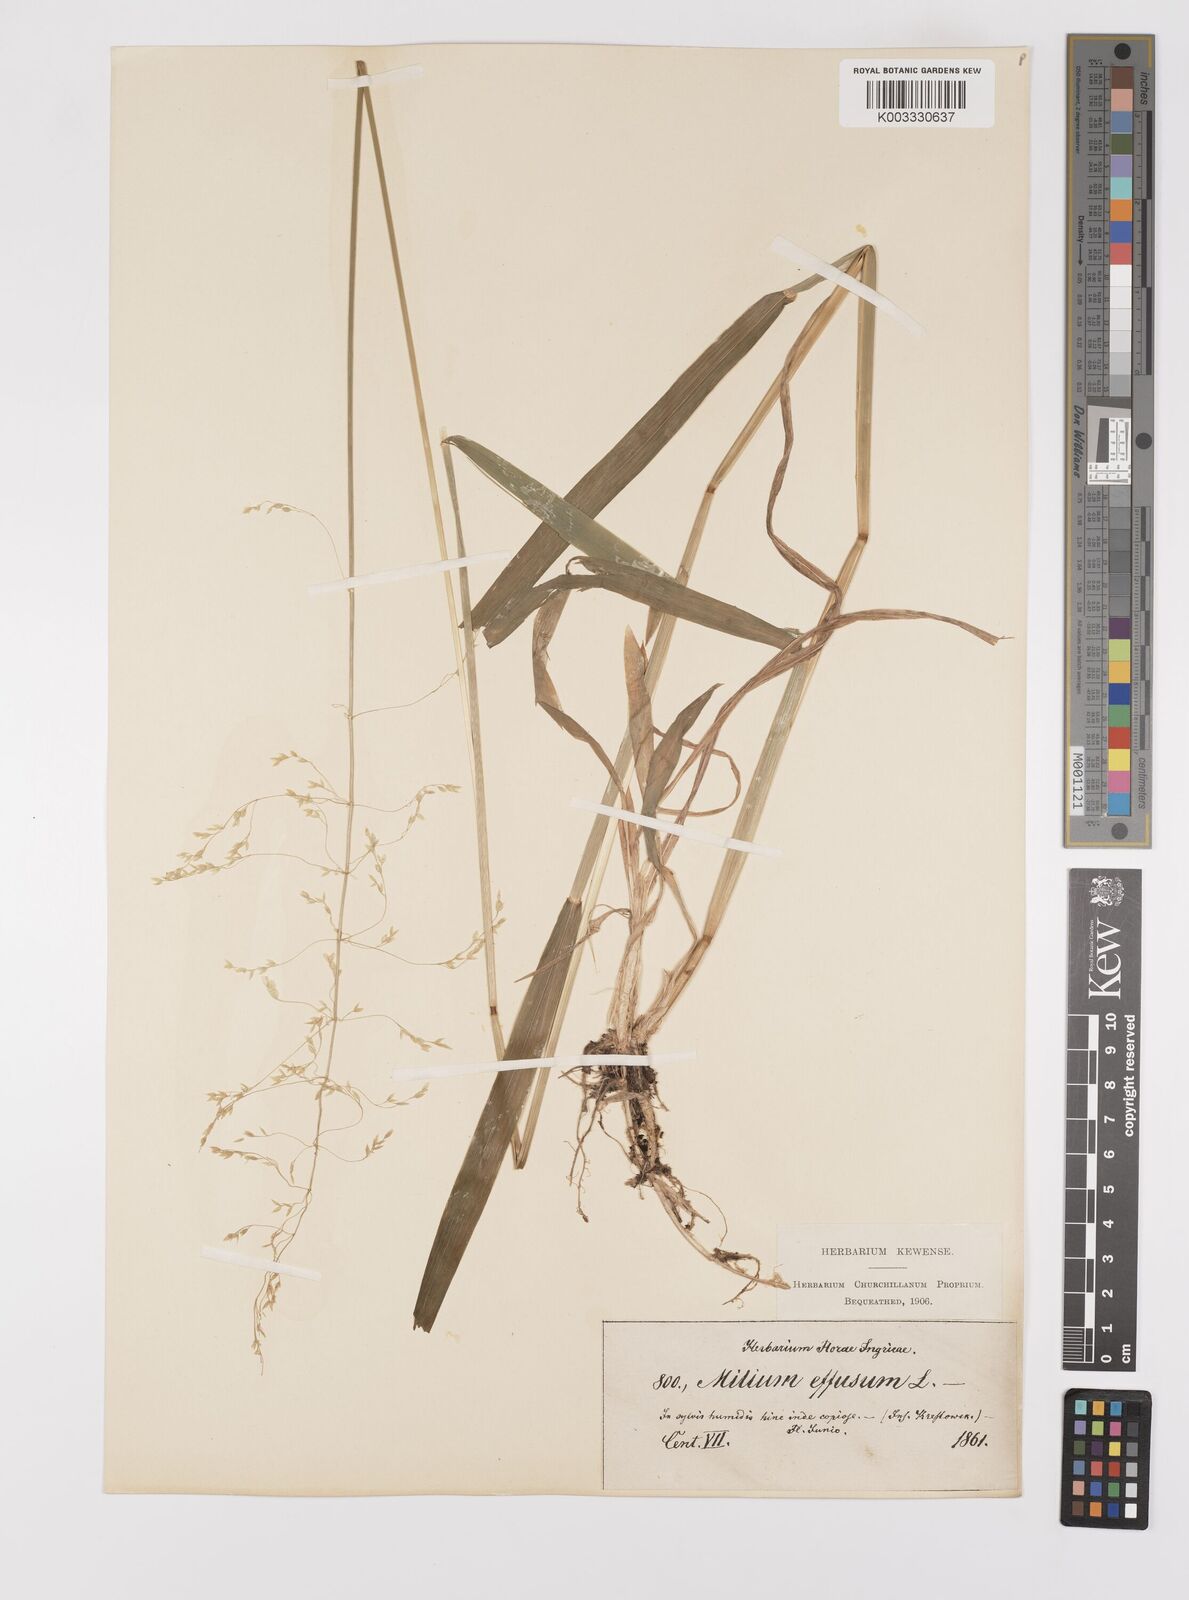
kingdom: Plantae
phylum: Tracheophyta
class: Liliopsida
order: Poales
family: Poaceae
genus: Milium
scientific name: Milium effusum
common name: Wood millet
